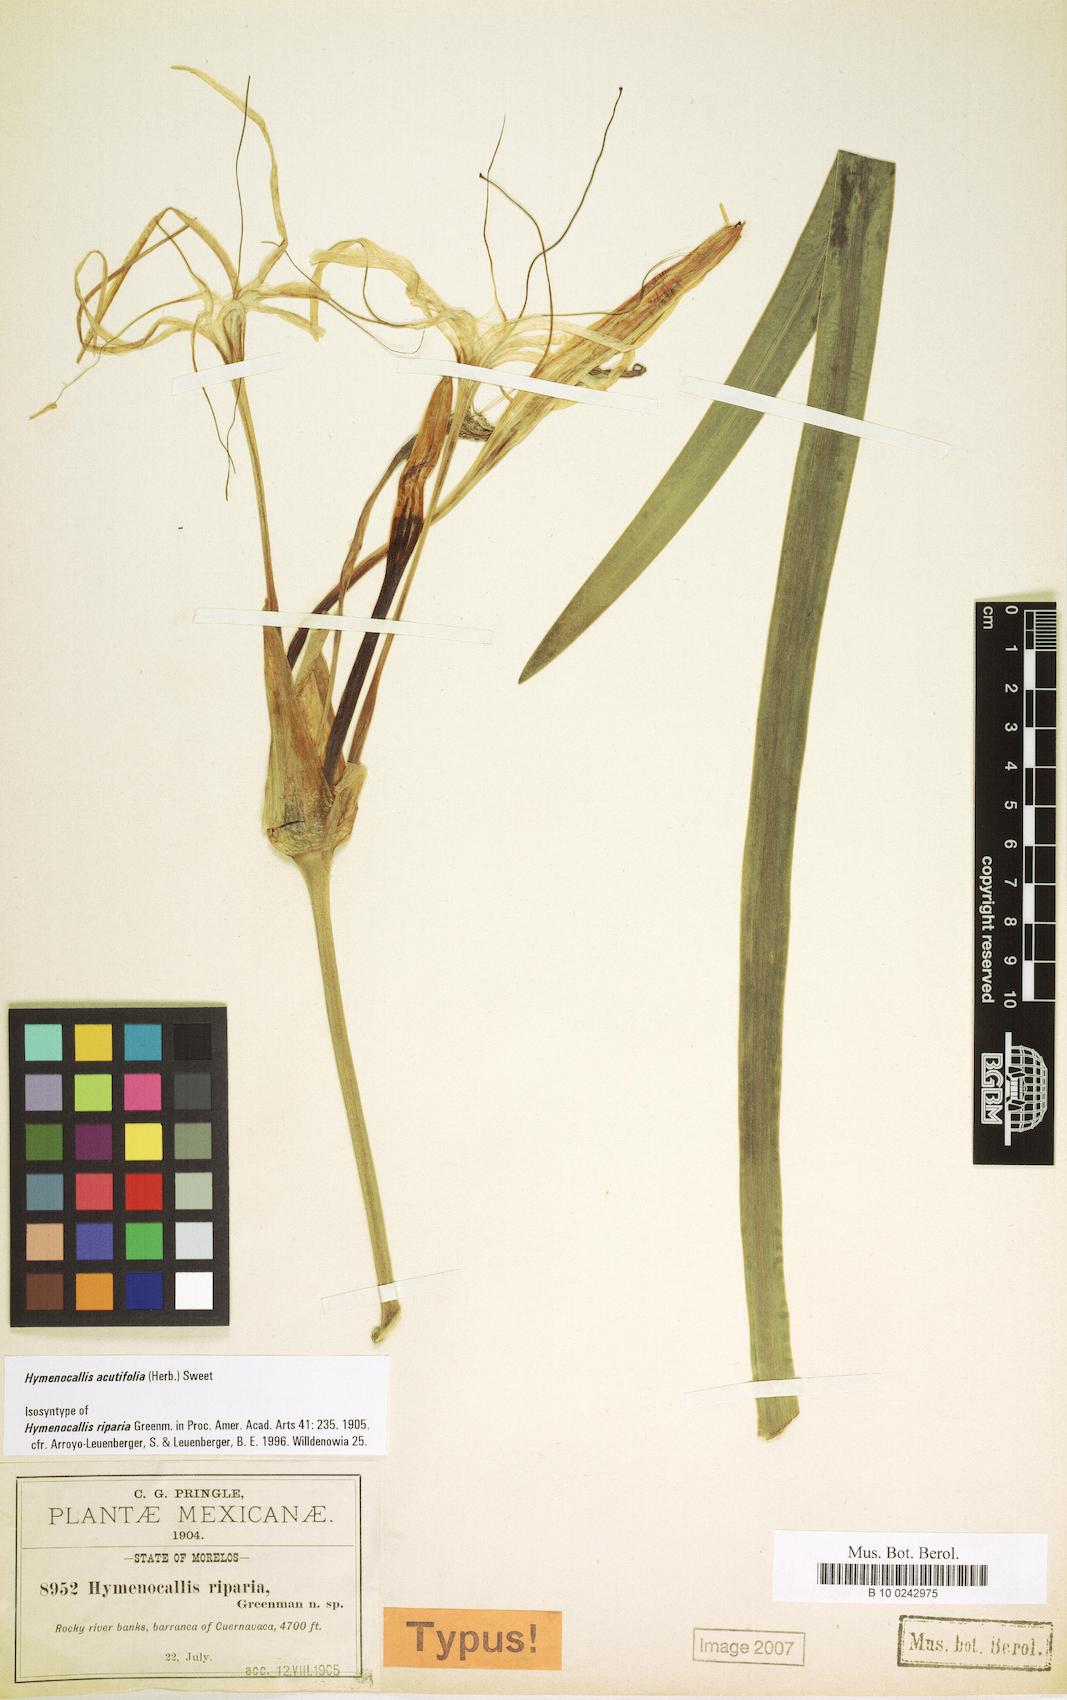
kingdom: Plantae
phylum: Tracheophyta
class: Liliopsida
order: Asparagales
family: Amaryllidaceae
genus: Hymenocallis
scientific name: Hymenocallis acutifolia
